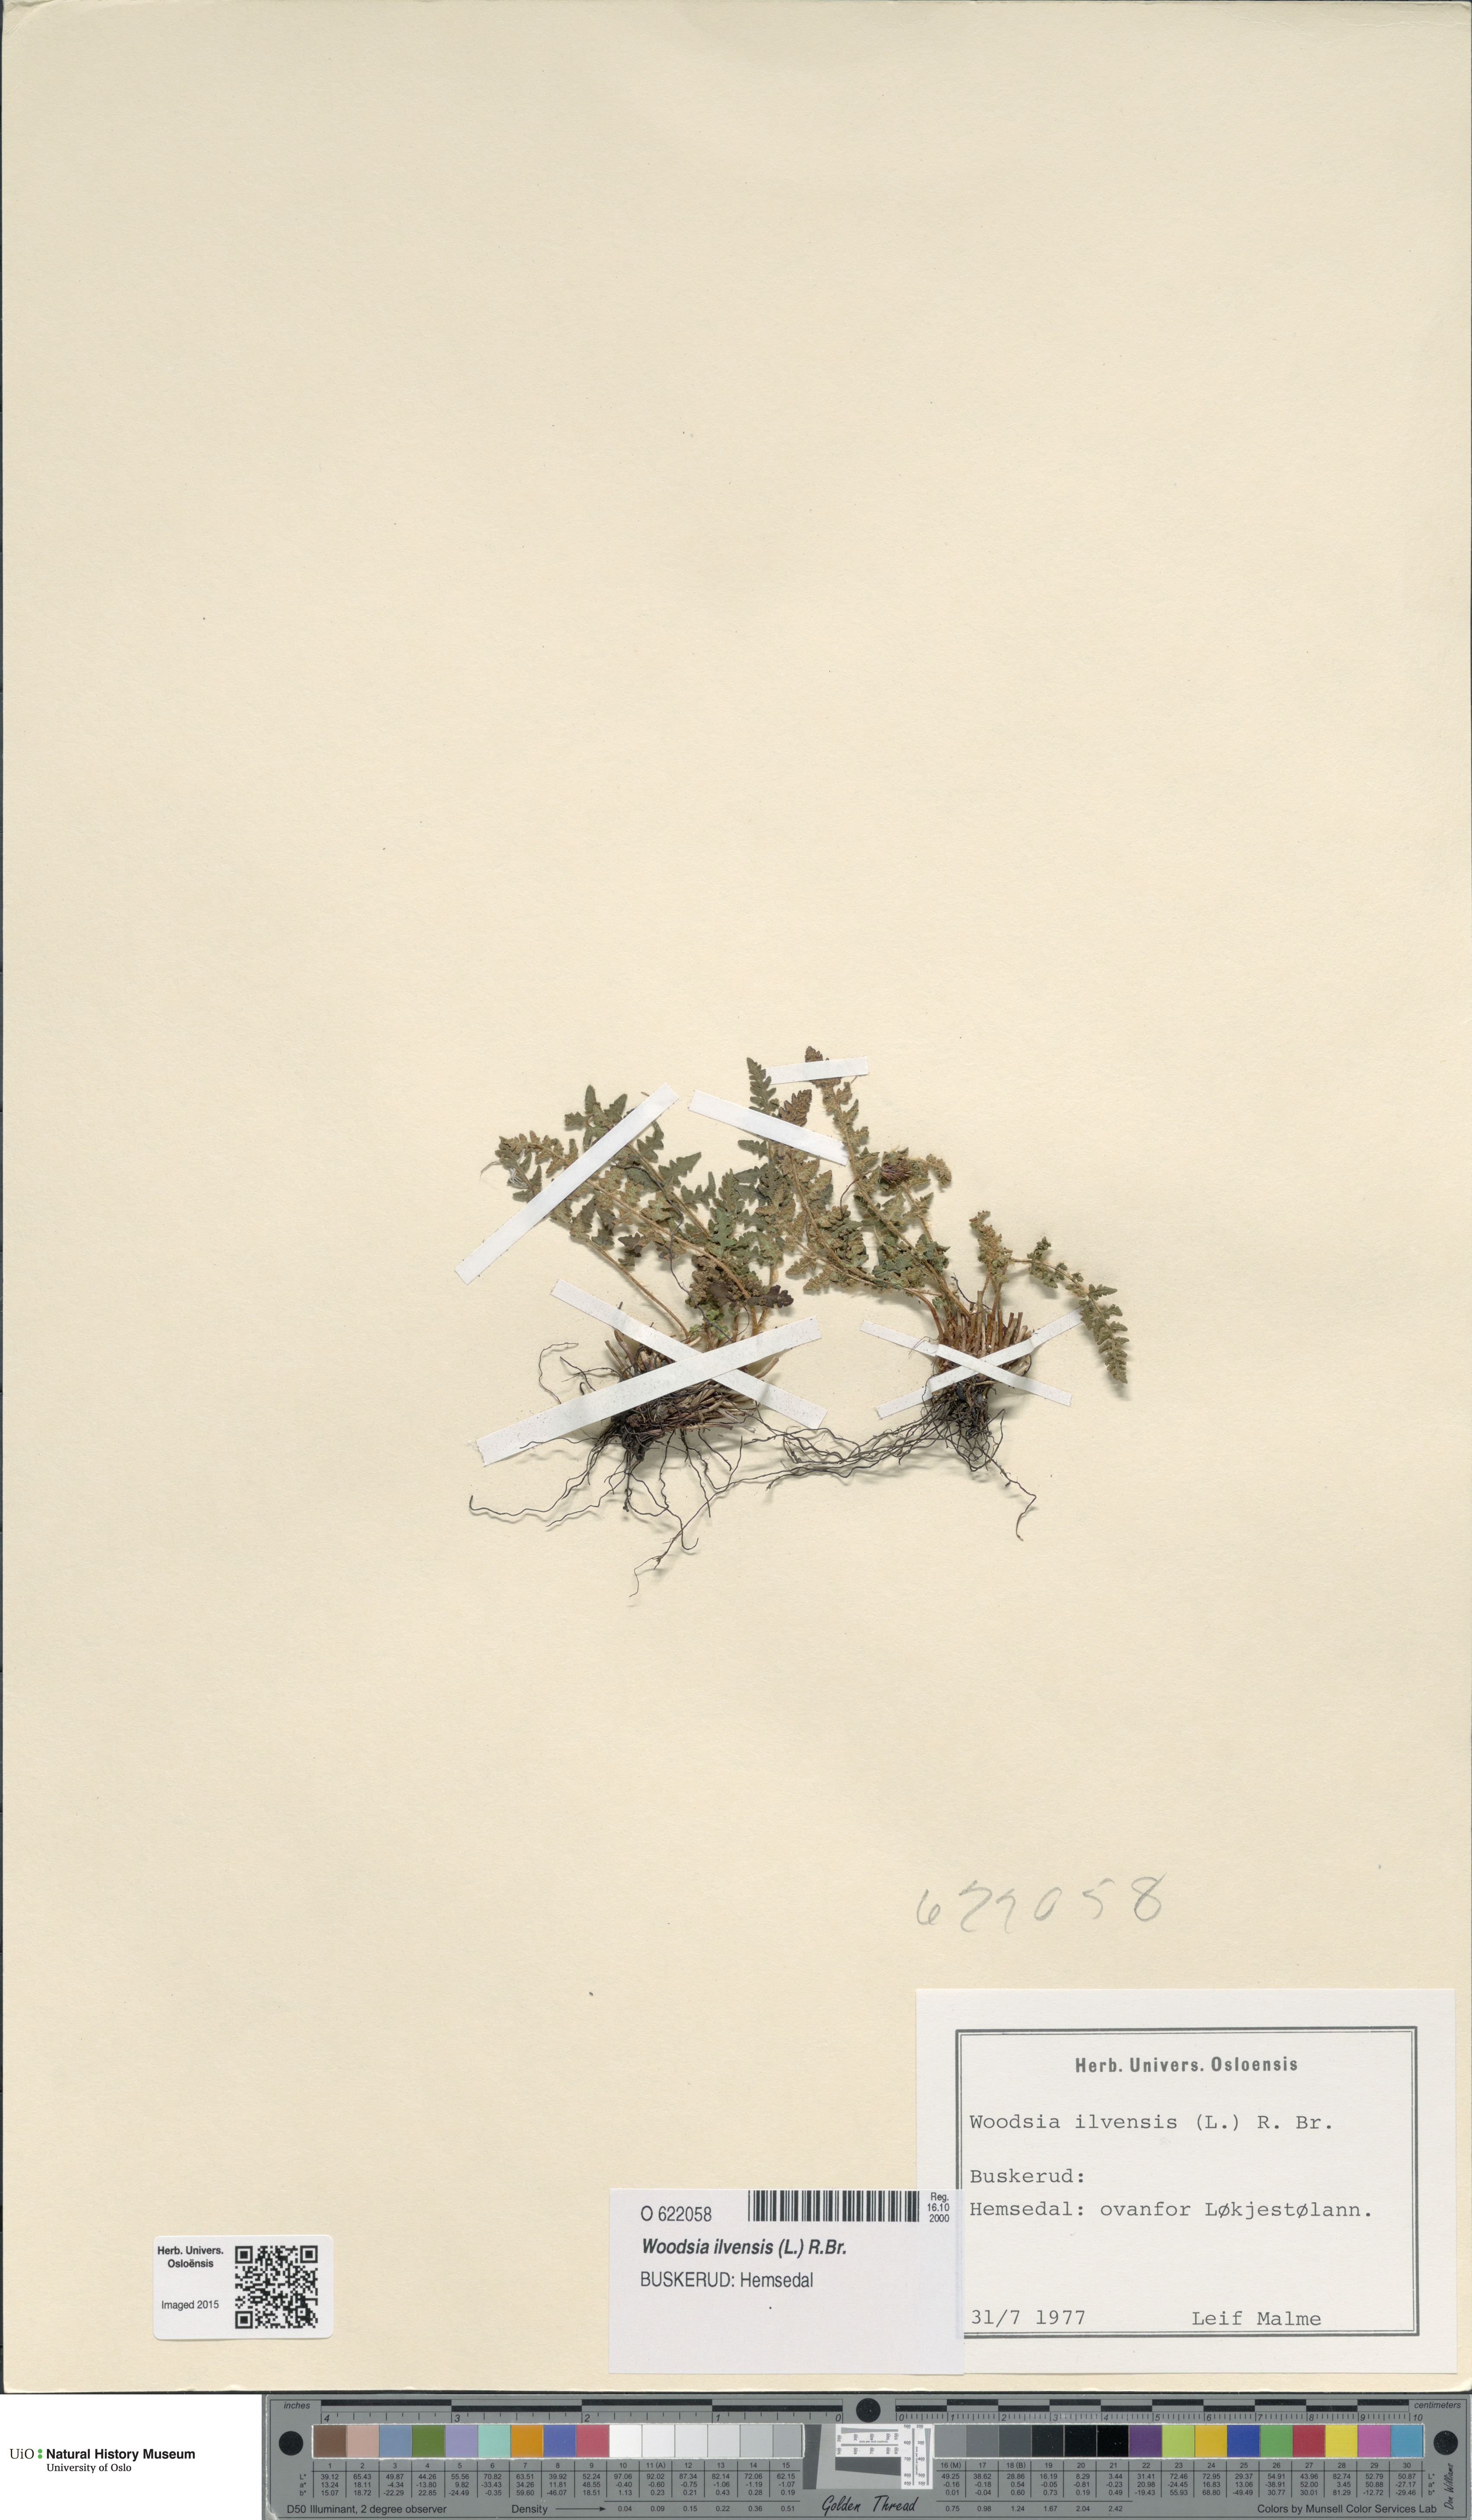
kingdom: Plantae
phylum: Tracheophyta
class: Polypodiopsida
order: Polypodiales
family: Woodsiaceae
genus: Woodsia
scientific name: Woodsia ilvensis
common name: Fragrant woodsia
